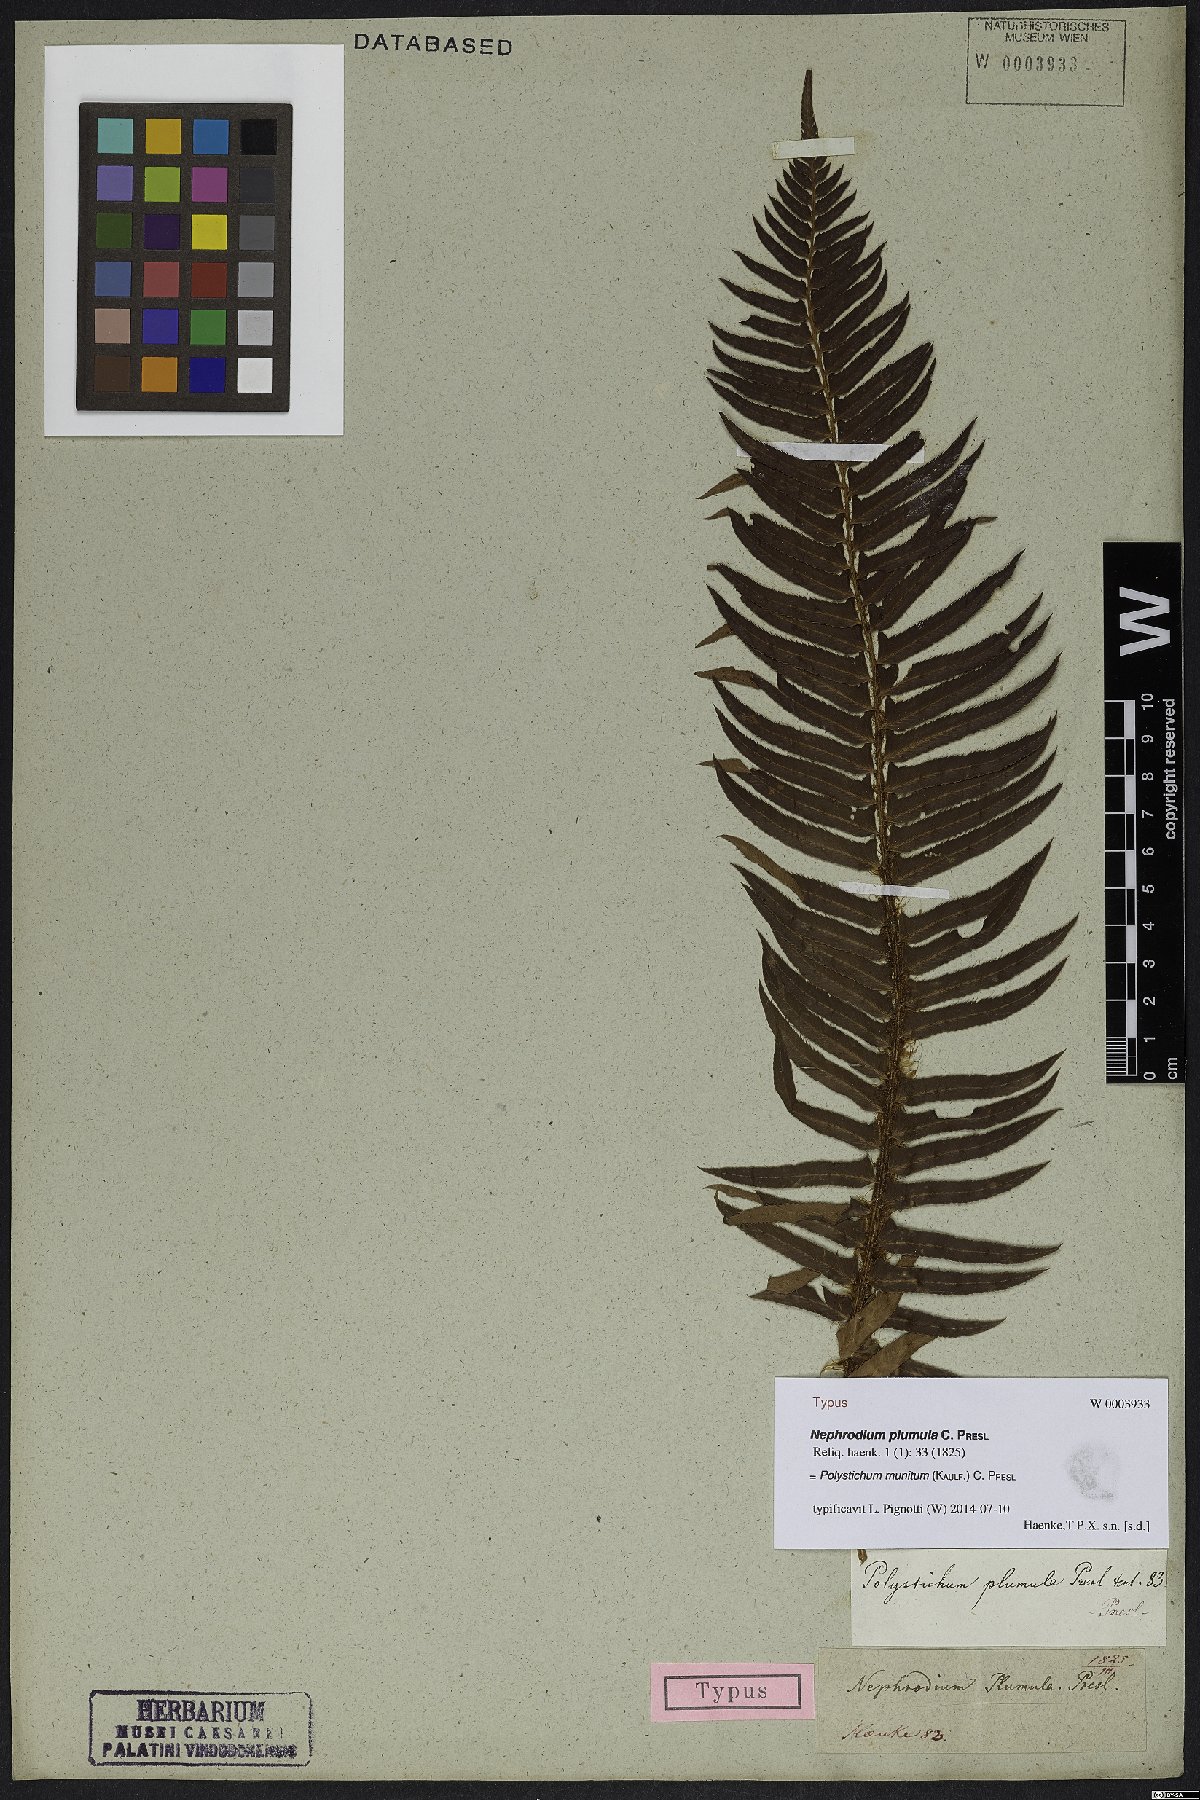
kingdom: Plantae
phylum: Tracheophyta
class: Polypodiopsida
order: Polypodiales
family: Dryopteridaceae
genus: Polystichum
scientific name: Polystichum munitum
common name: Western sword-fern
